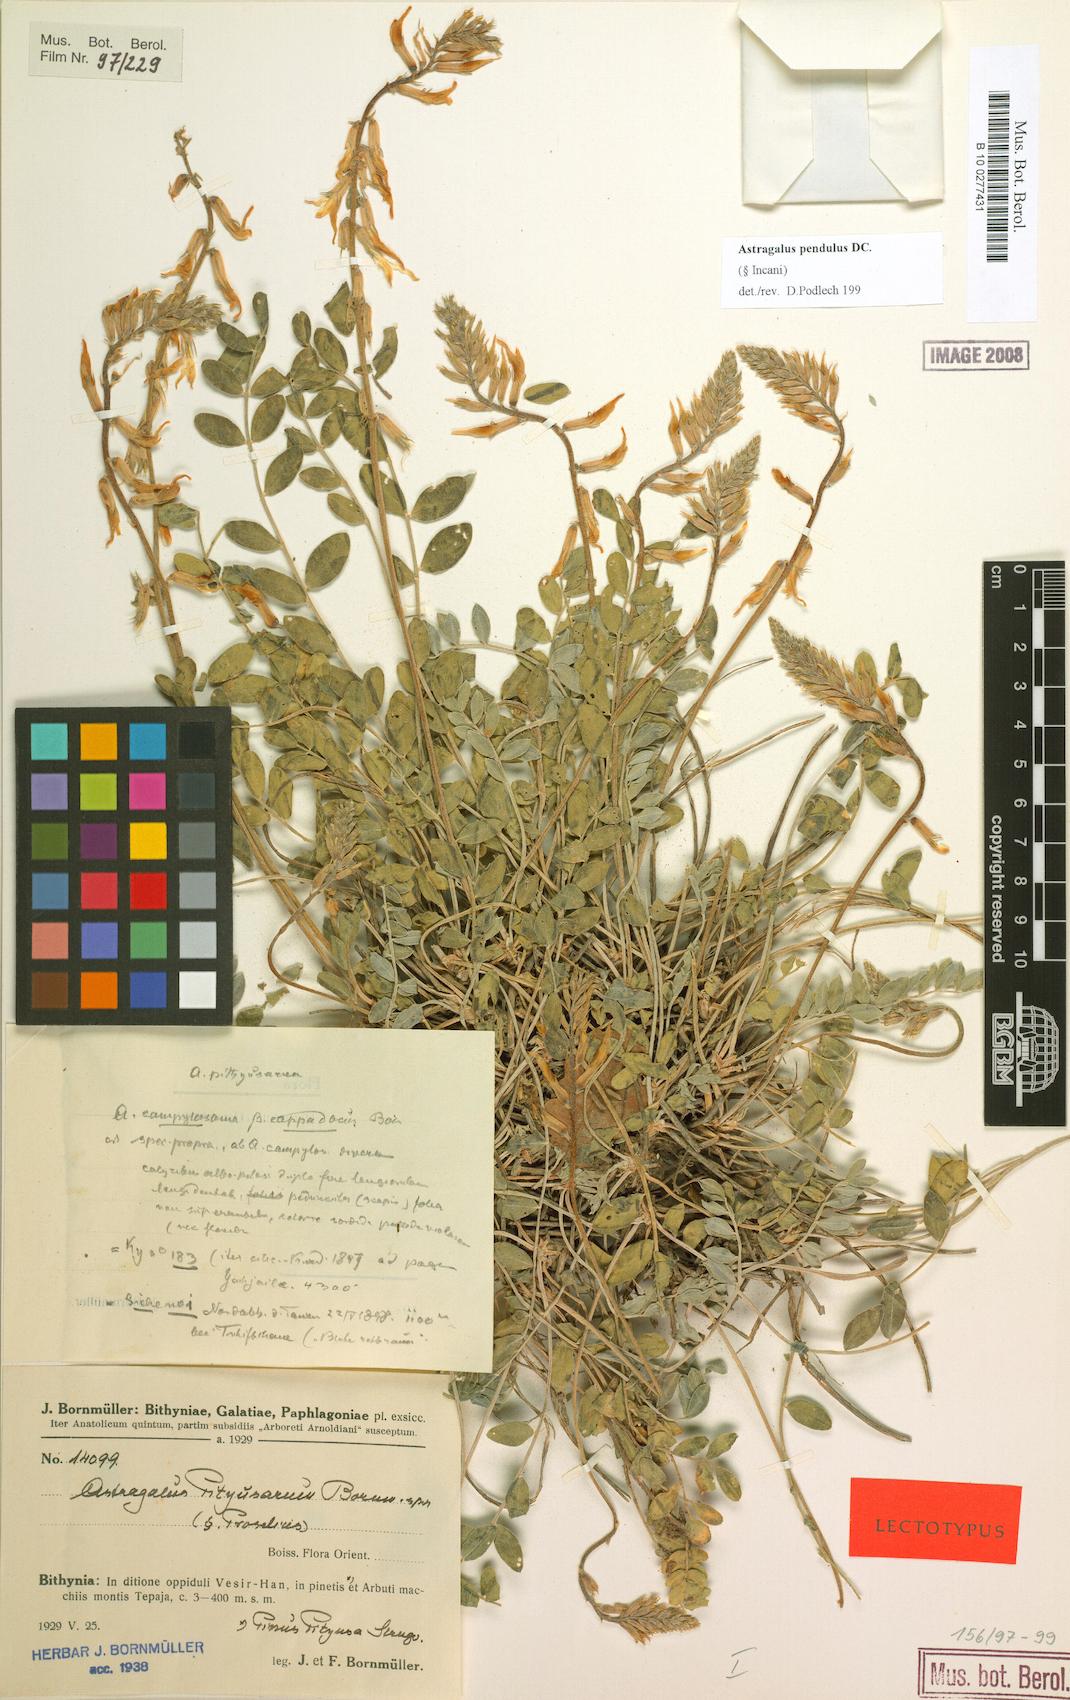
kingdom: Plantae
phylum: Tracheophyta
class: Magnoliopsida
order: Fabales
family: Fabaceae
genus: Astragalus
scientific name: Astragalus pendulus
